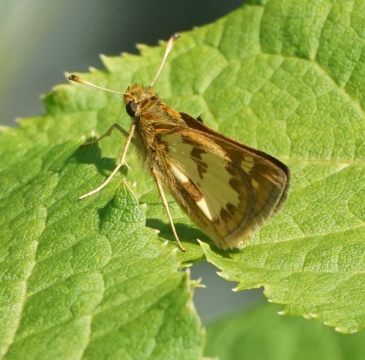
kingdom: Animalia
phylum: Arthropoda
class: Insecta
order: Lepidoptera
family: Hesperiidae
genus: Polites
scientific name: Polites coras
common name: Peck's Skipper
